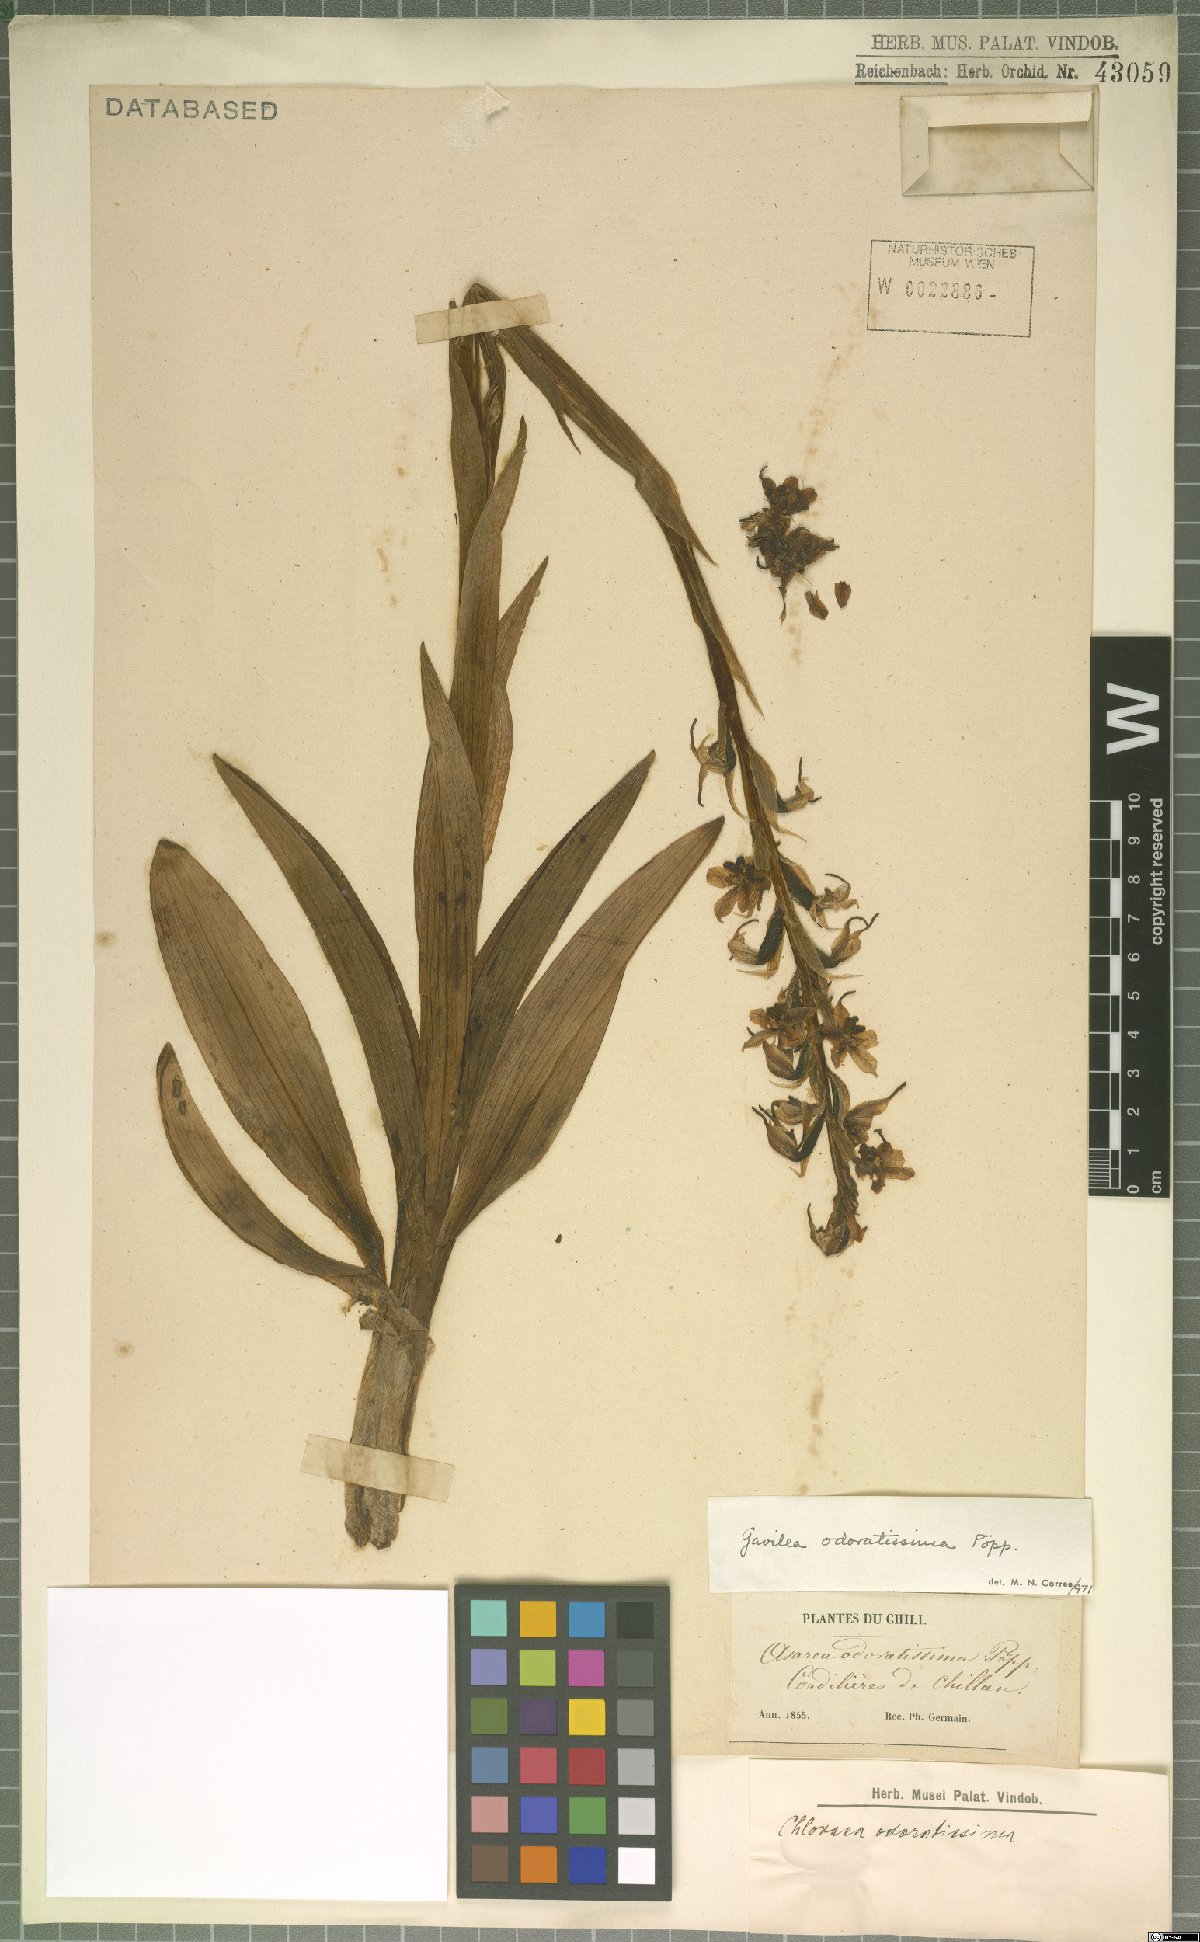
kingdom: Plantae
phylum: Tracheophyta
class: Liliopsida
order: Asparagales
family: Orchidaceae
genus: Gavilea
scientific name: Gavilea odoratissima
